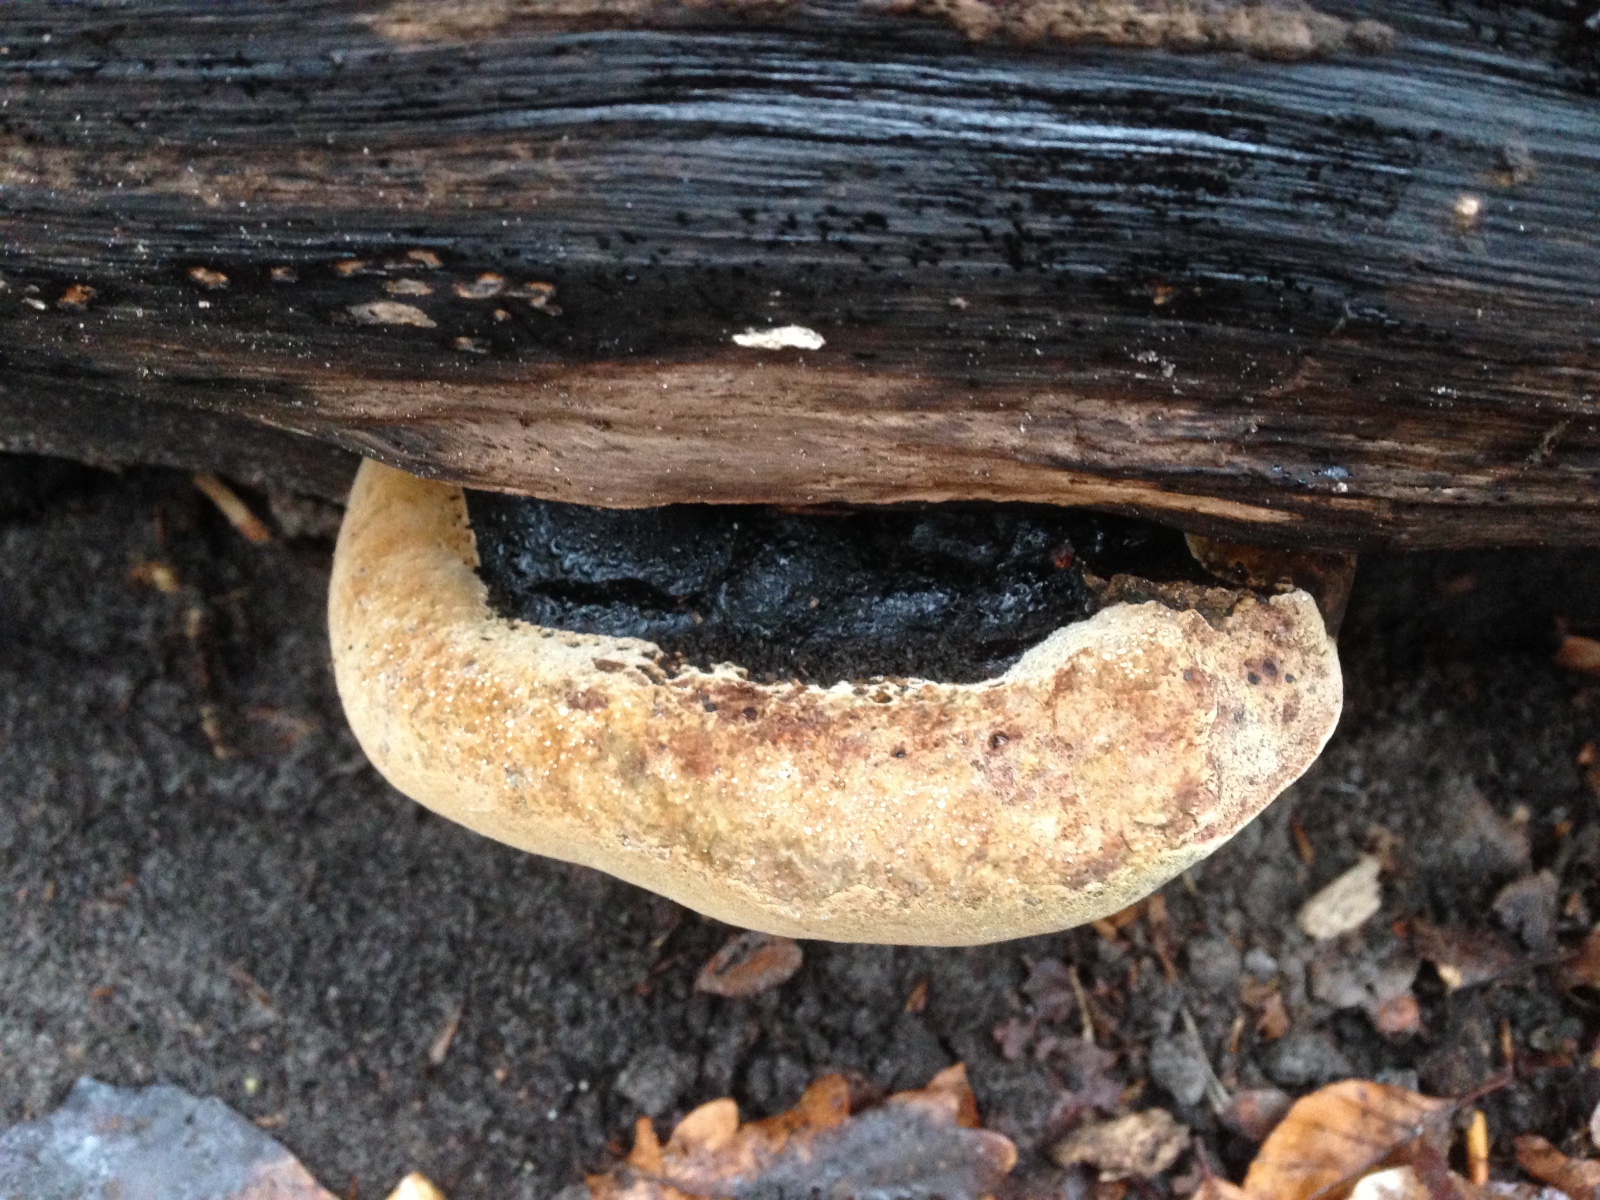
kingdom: Fungi
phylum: Basidiomycota
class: Agaricomycetes
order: Hymenochaetales
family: Hymenochaetaceae
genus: Phellinus
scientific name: Phellinus
